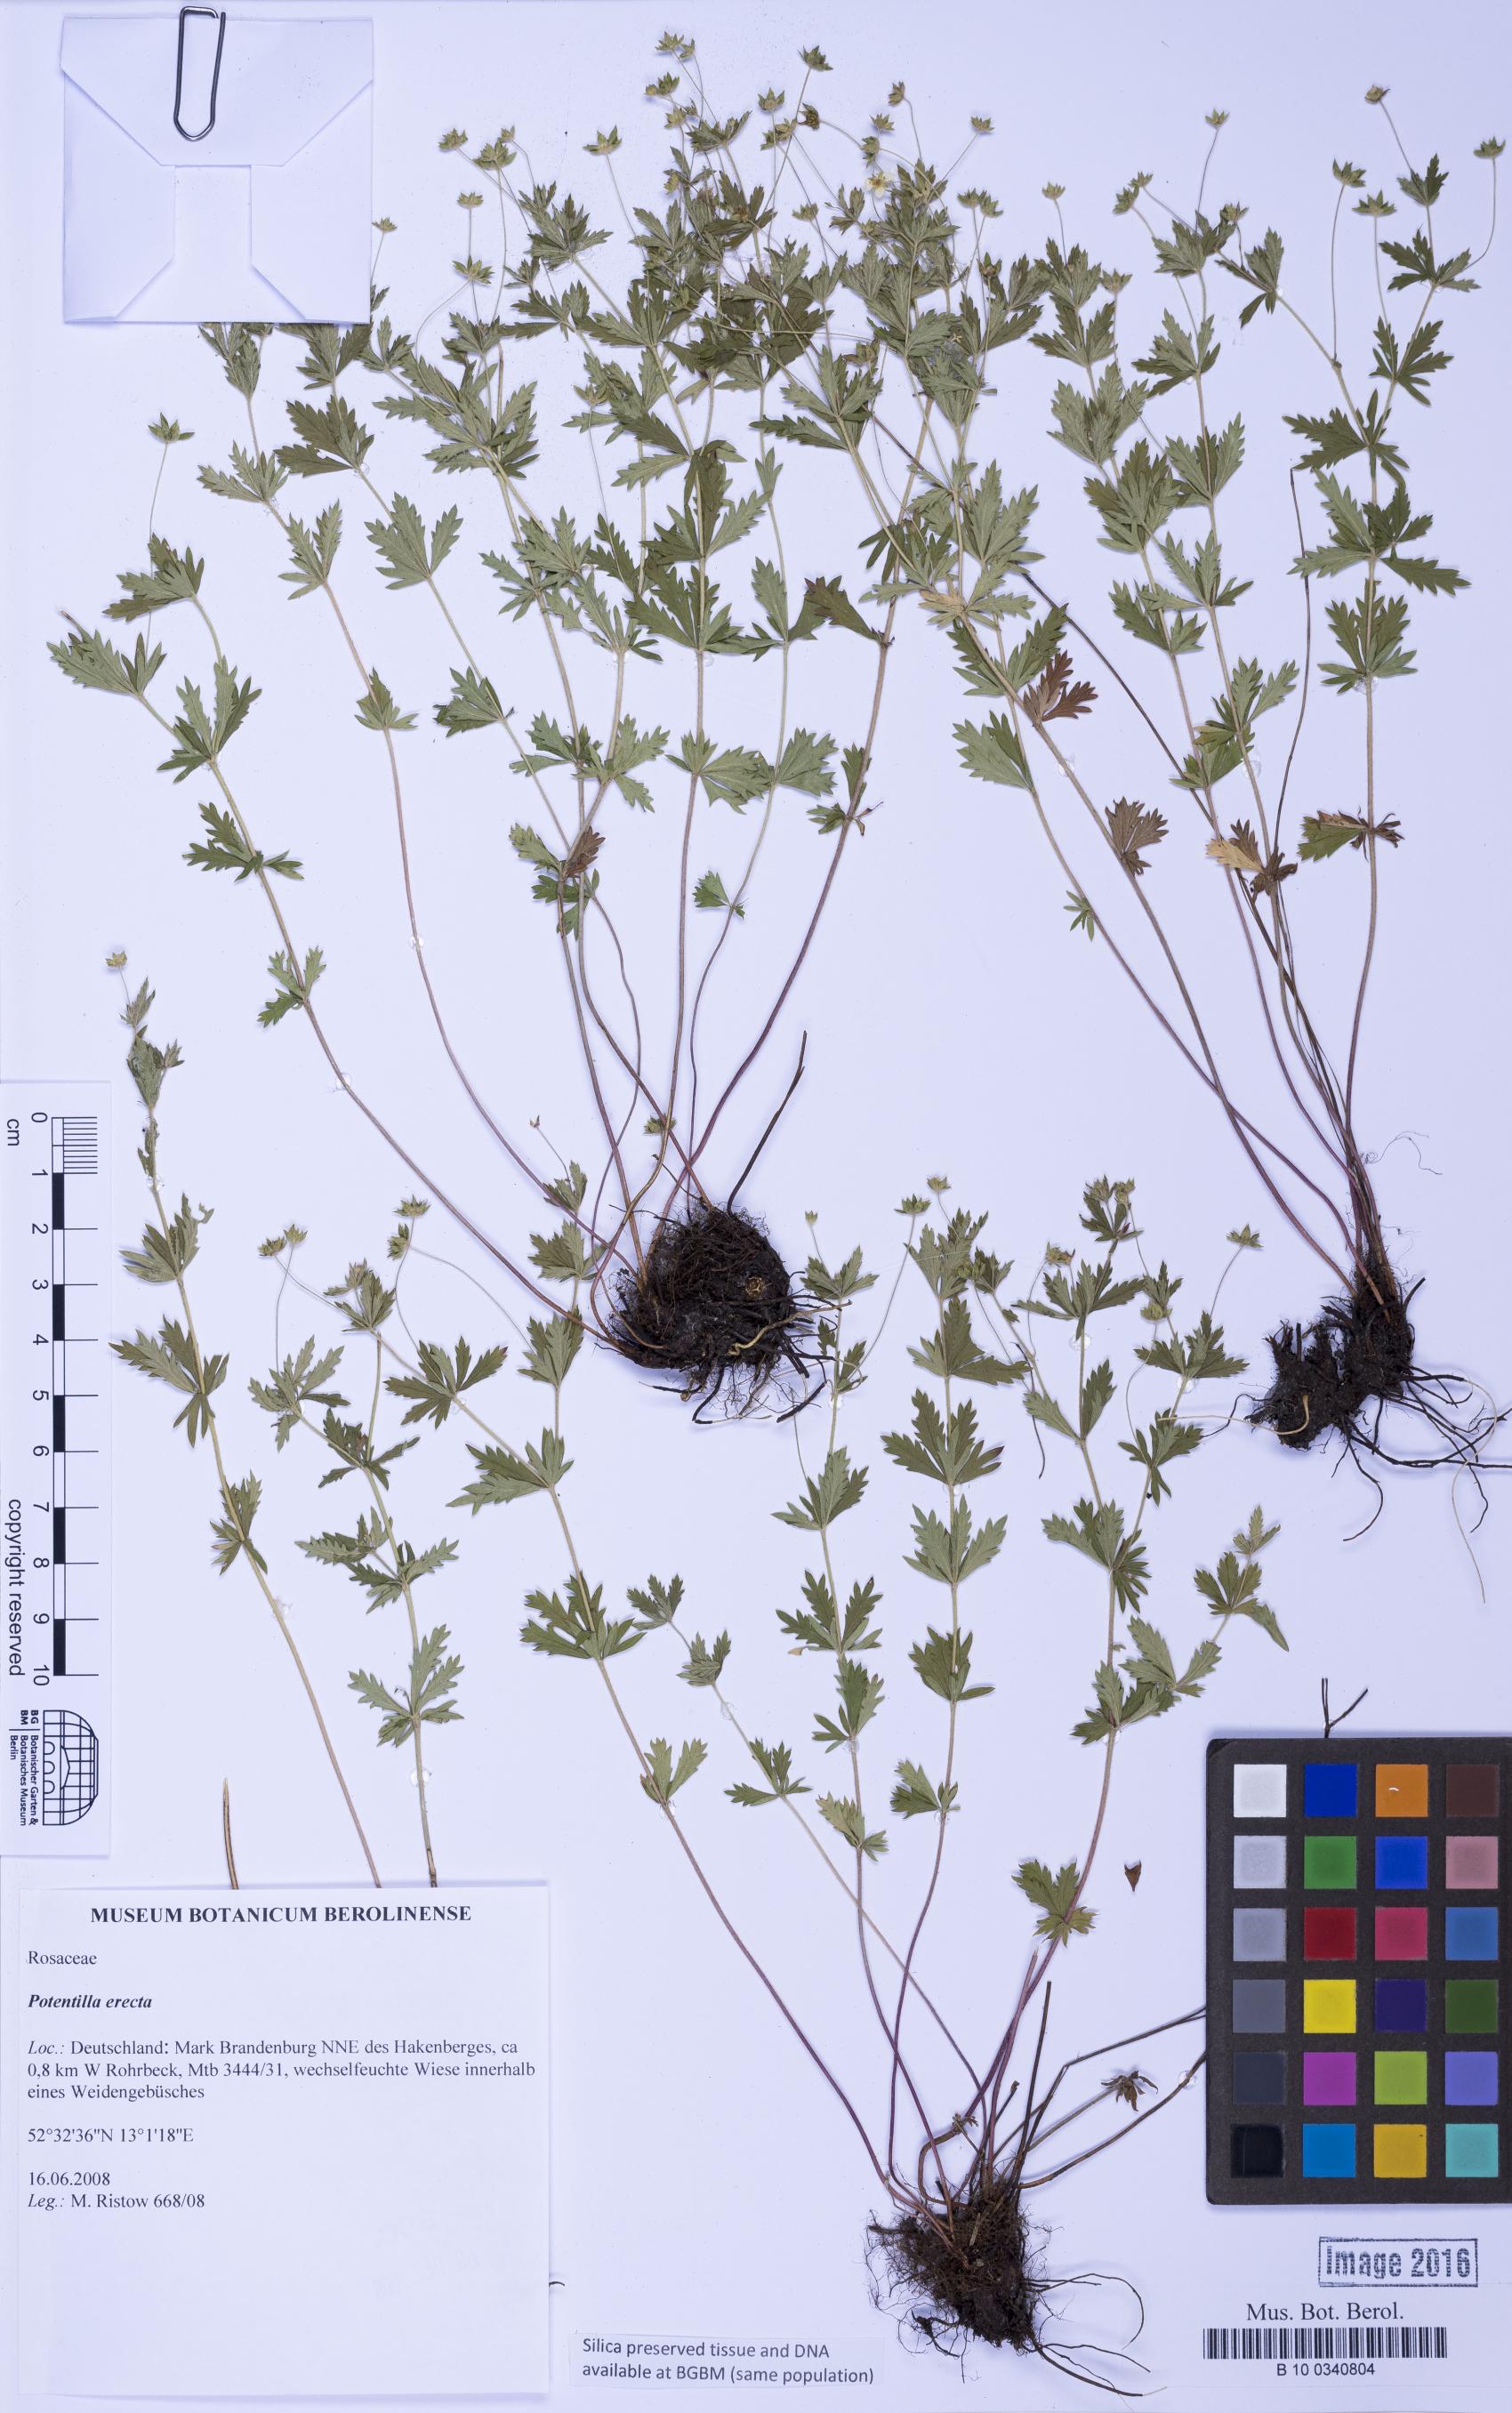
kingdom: Plantae
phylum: Tracheophyta
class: Magnoliopsida
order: Rosales
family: Rosaceae
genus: Potentilla
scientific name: Potentilla erecta
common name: Tormentil
